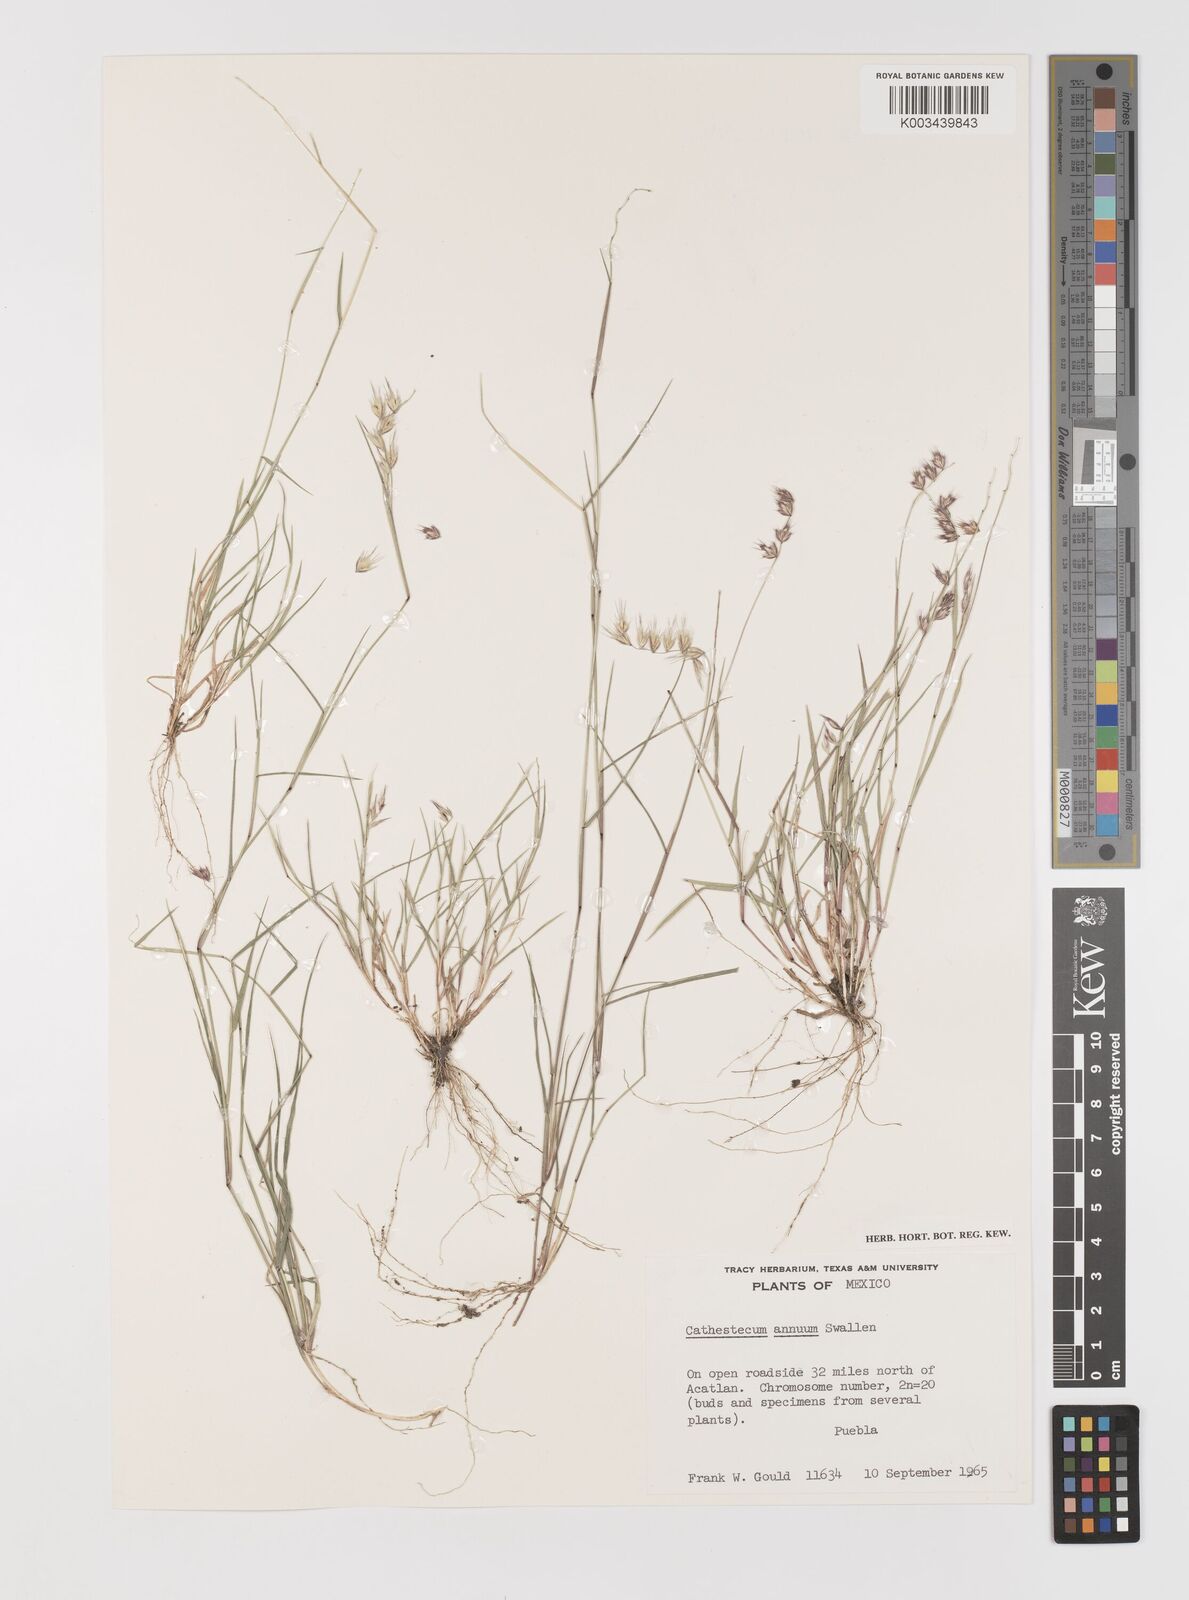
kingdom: Plantae
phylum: Tracheophyta
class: Liliopsida
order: Poales
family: Poaceae
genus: Bouteloua
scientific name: Bouteloua griffithsii
